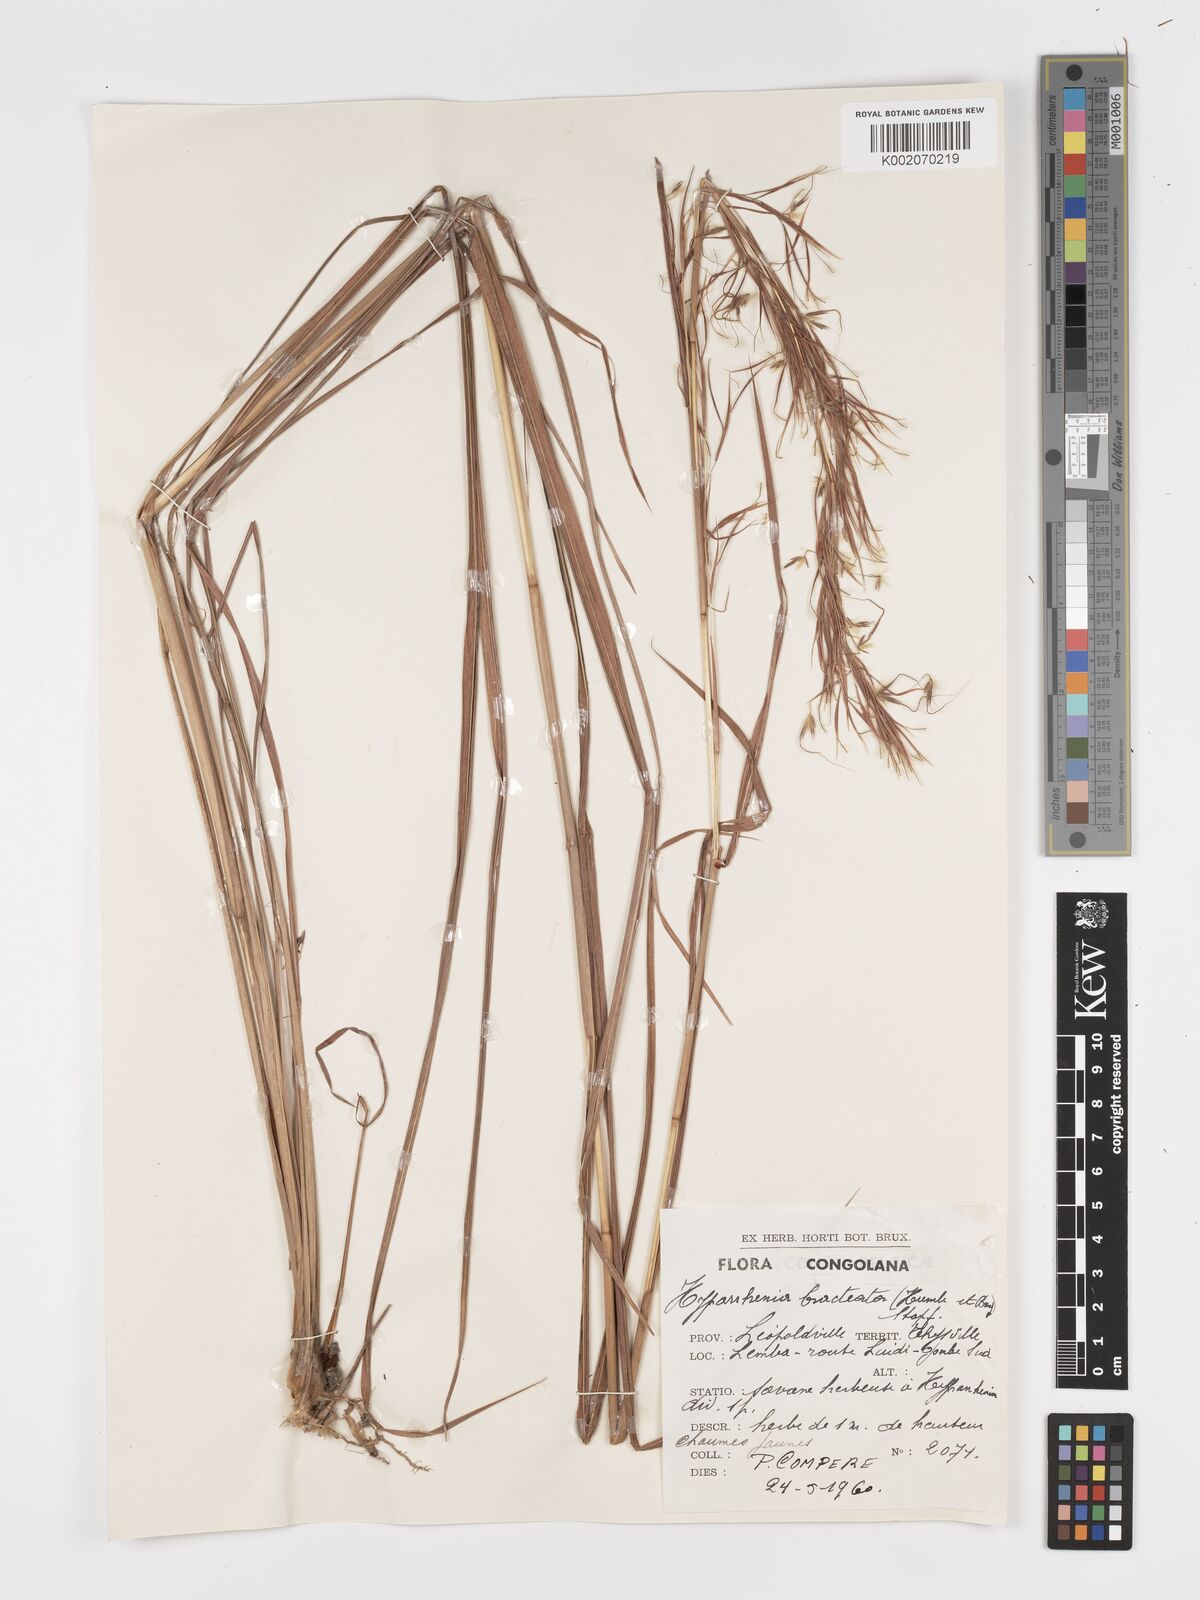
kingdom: Plantae
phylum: Tracheophyta
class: Liliopsida
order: Poales
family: Poaceae
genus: Hyparrhenia
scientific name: Hyparrhenia bracteata
